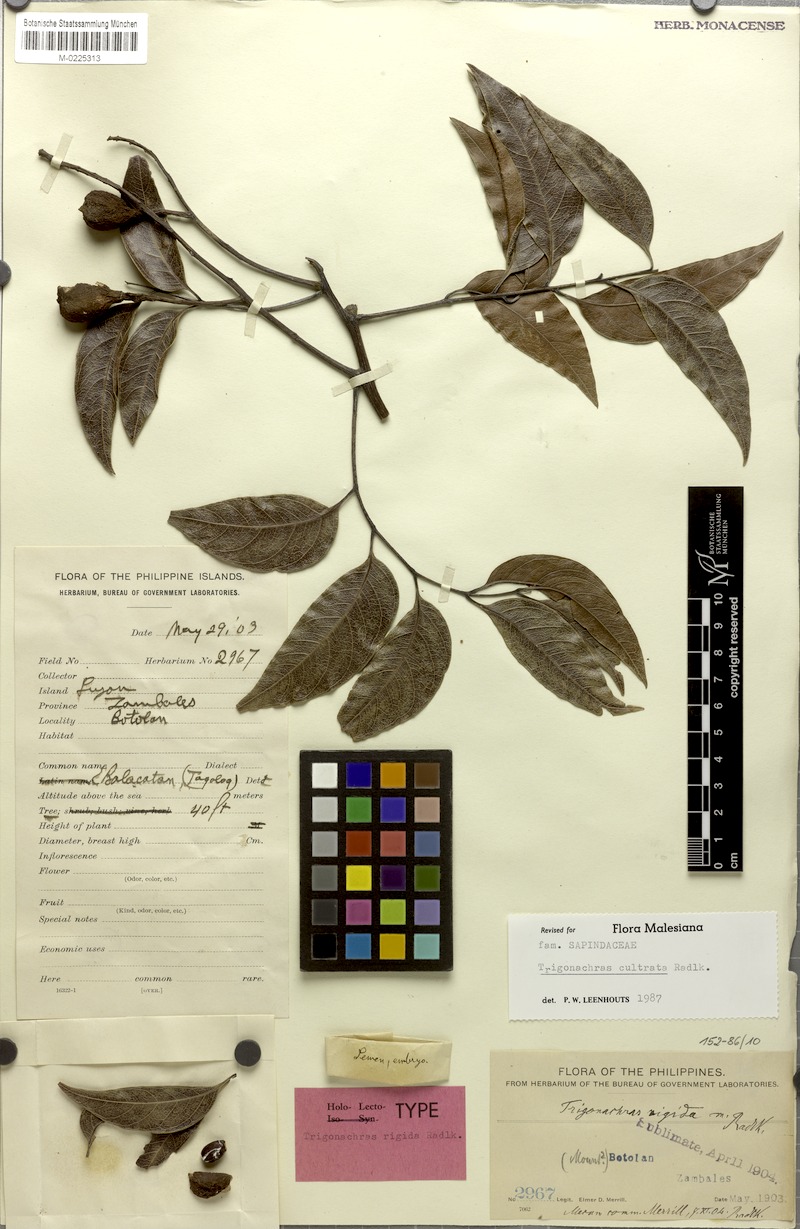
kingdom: Plantae
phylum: Tracheophyta
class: Magnoliopsida
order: Sapindales
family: Sapindaceae
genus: Trigonachras
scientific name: Trigonachras cultrata
